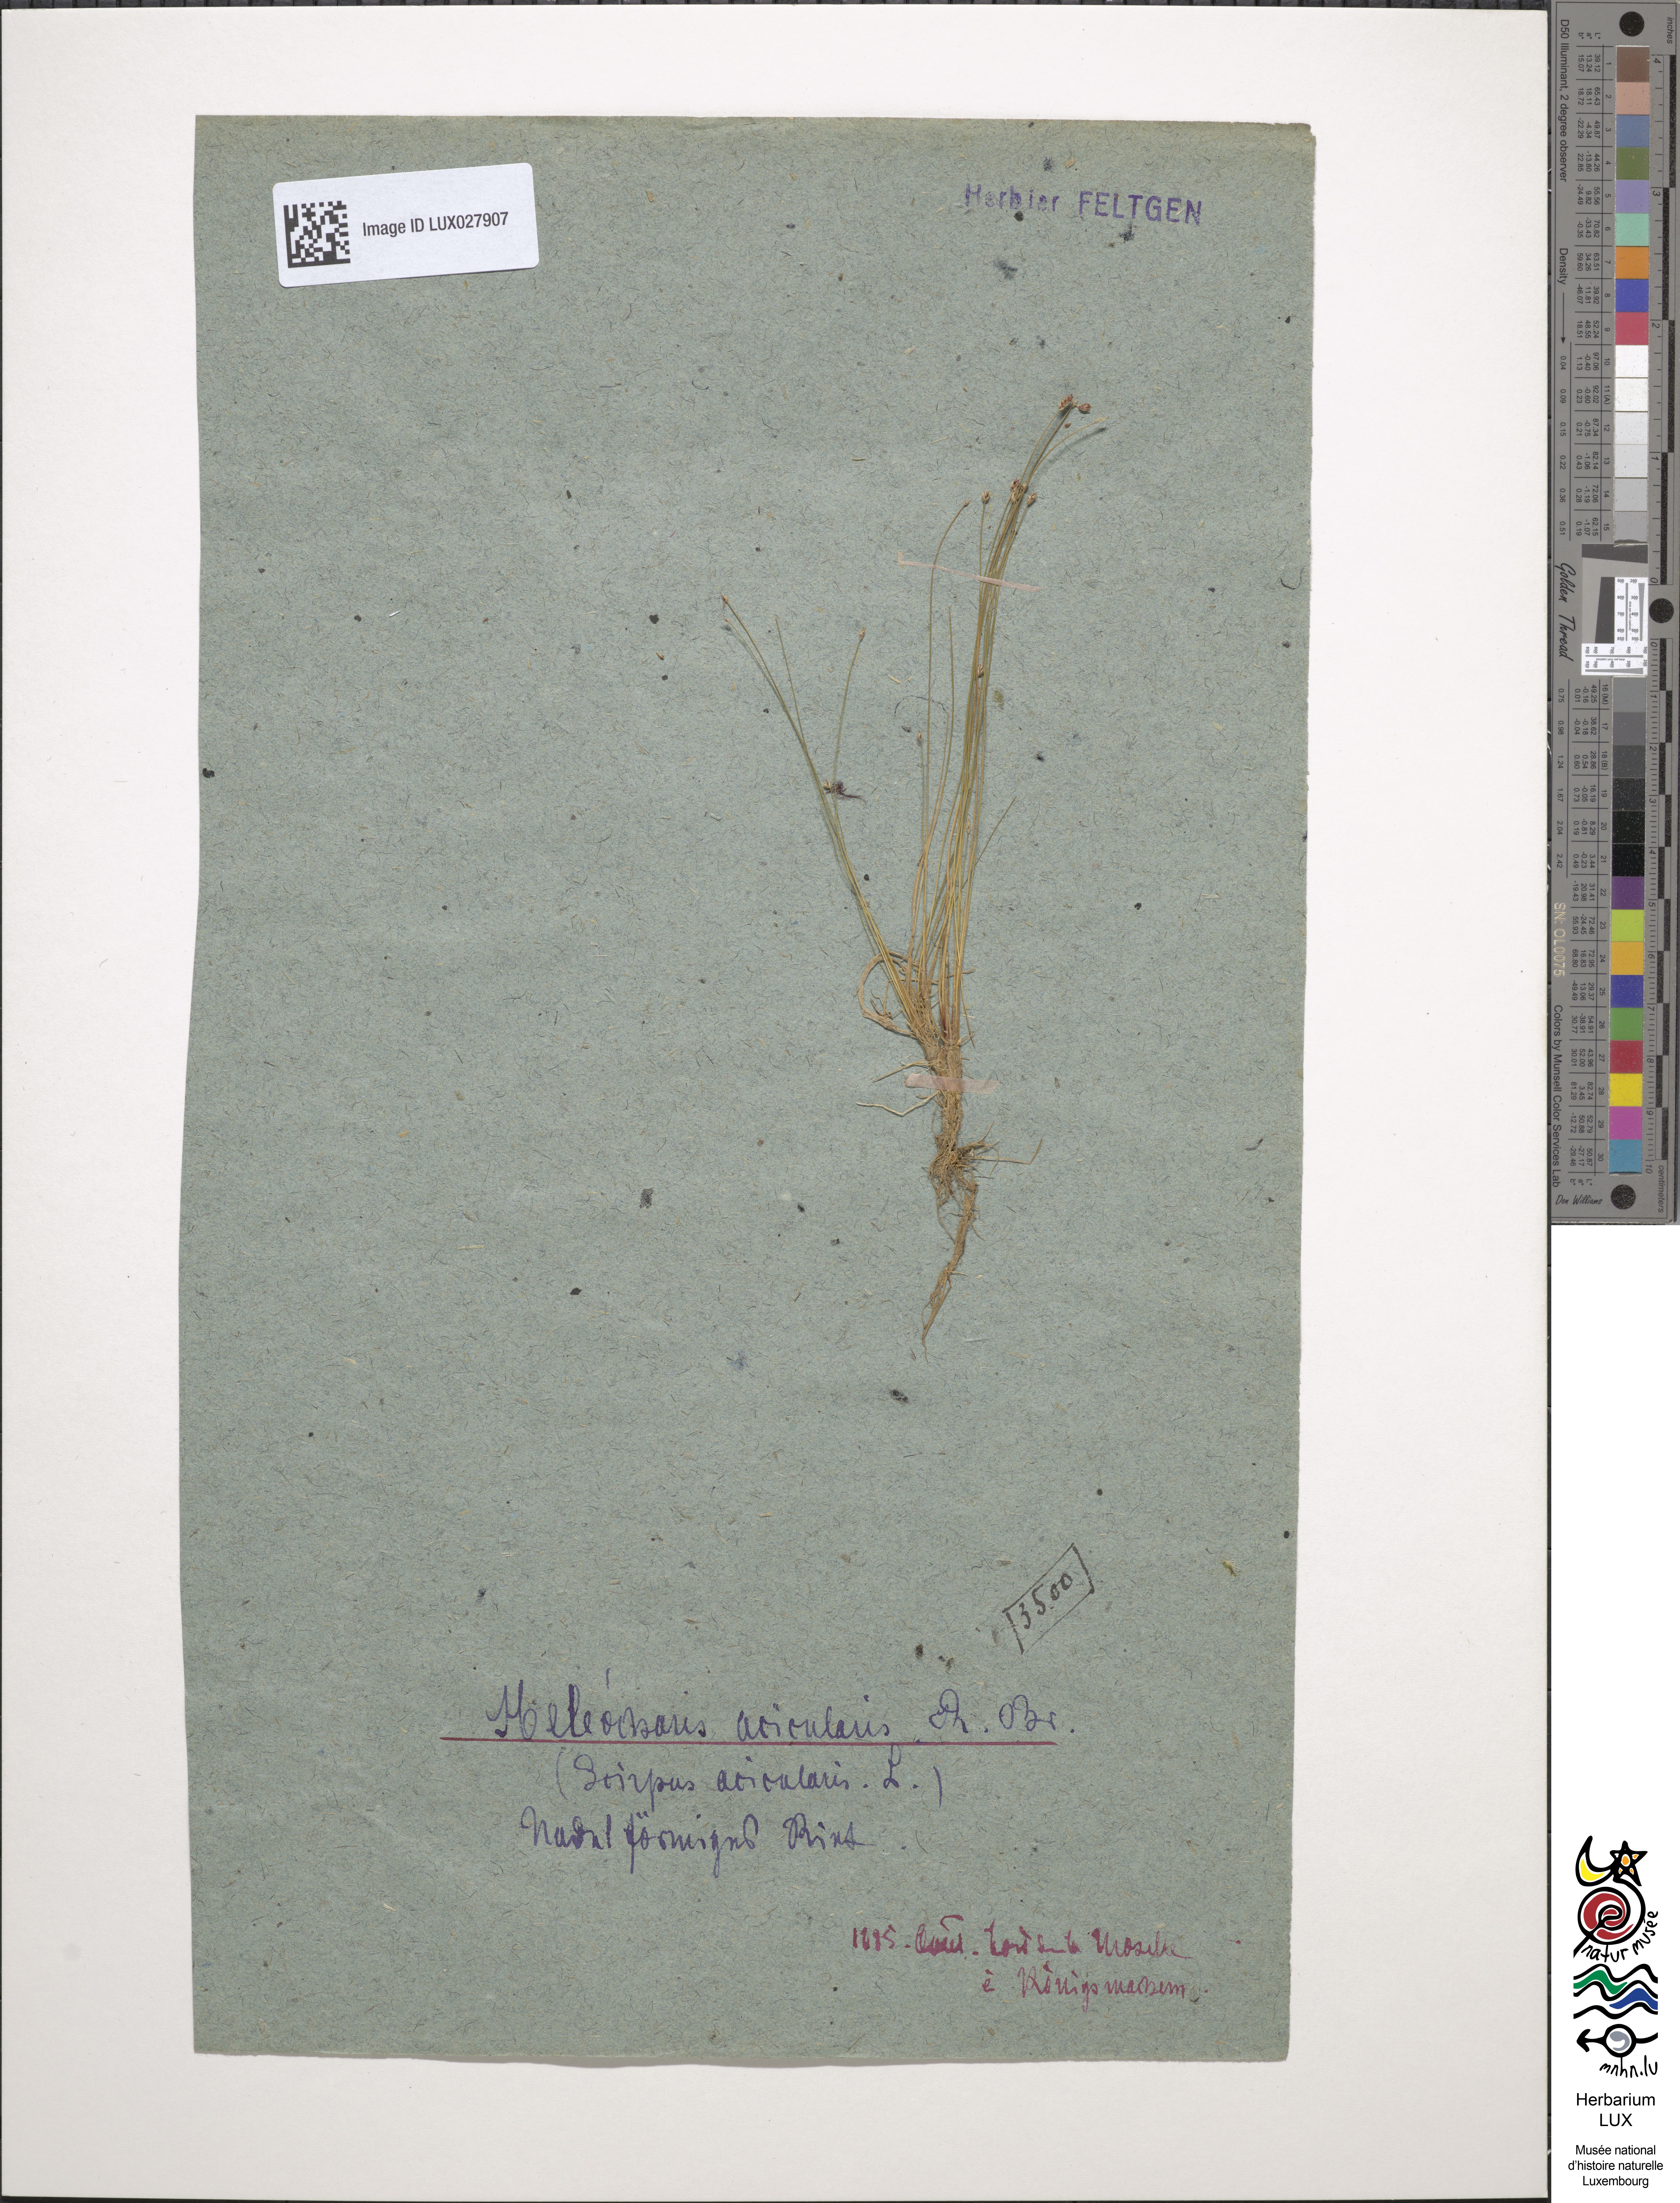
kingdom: Plantae
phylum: Tracheophyta
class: Liliopsida
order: Poales
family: Cyperaceae
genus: Eleocharis
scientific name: Eleocharis acicularis
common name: Needle spike-rush
